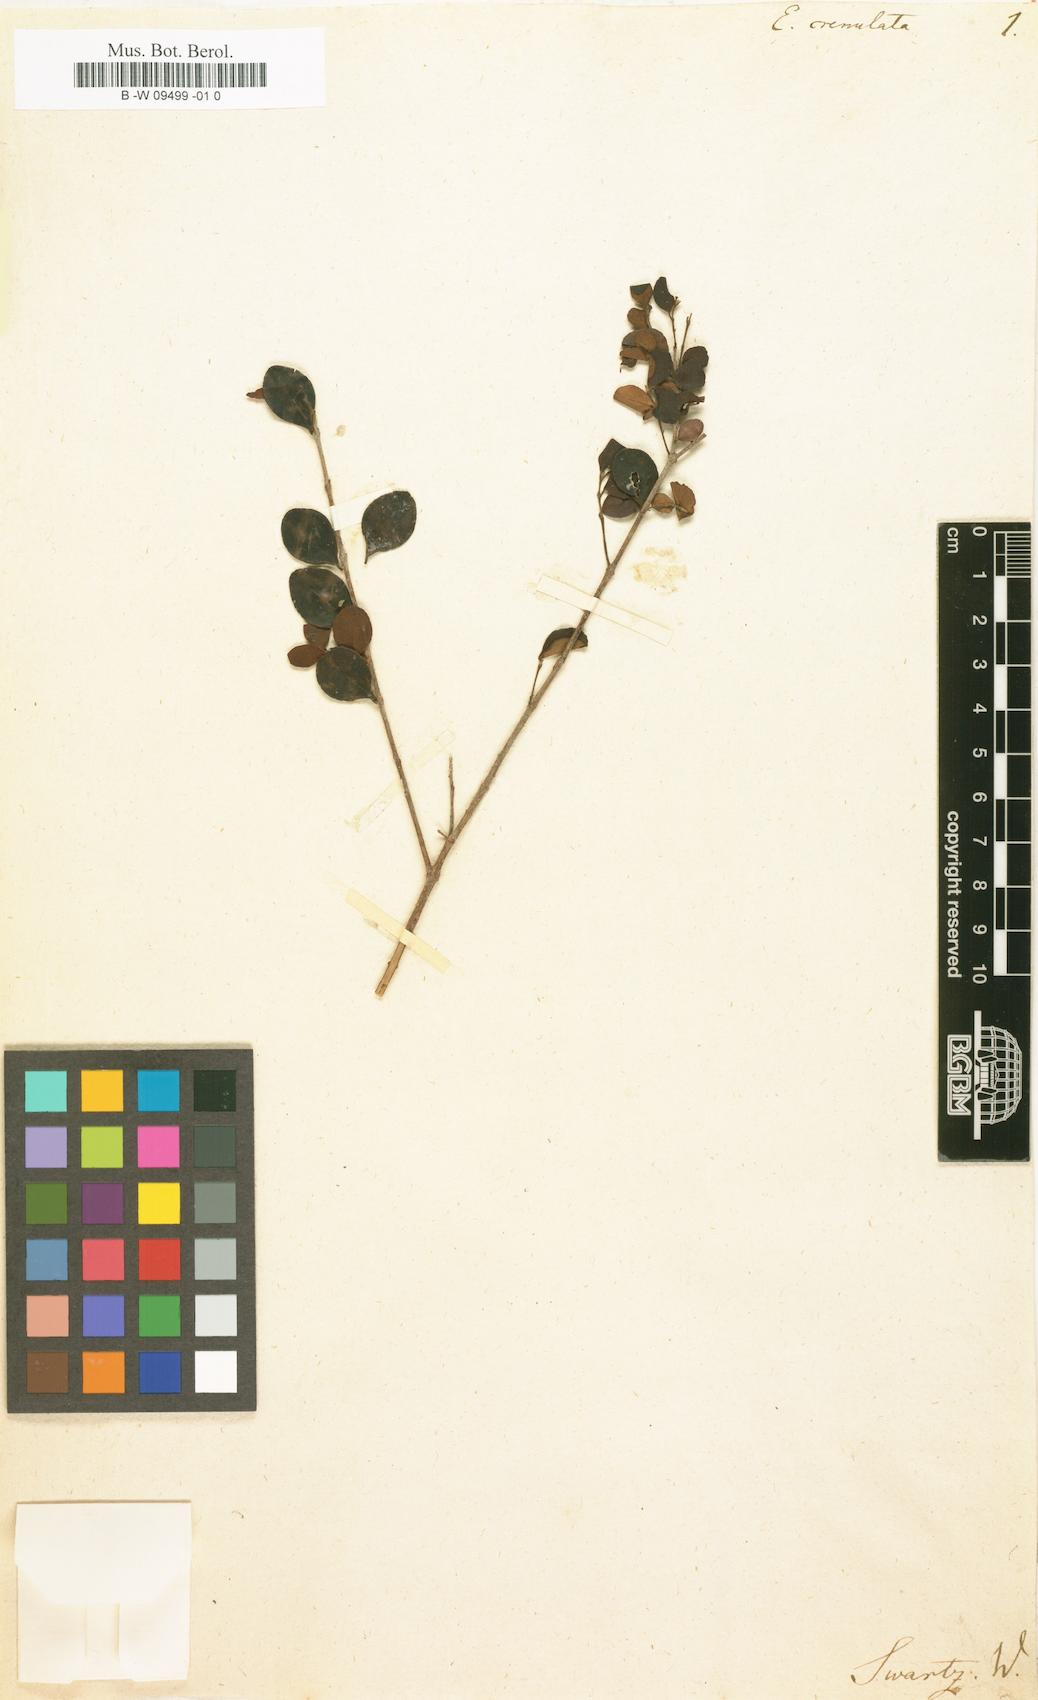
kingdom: Plantae
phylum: Tracheophyta
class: Magnoliopsida
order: Myrtales
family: Myrtaceae
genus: Eugenia
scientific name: Eugenia crenulata
